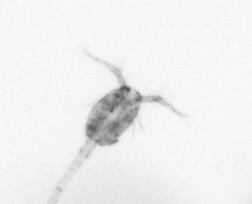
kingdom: Animalia
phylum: Arthropoda
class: Copepoda
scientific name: Copepoda
